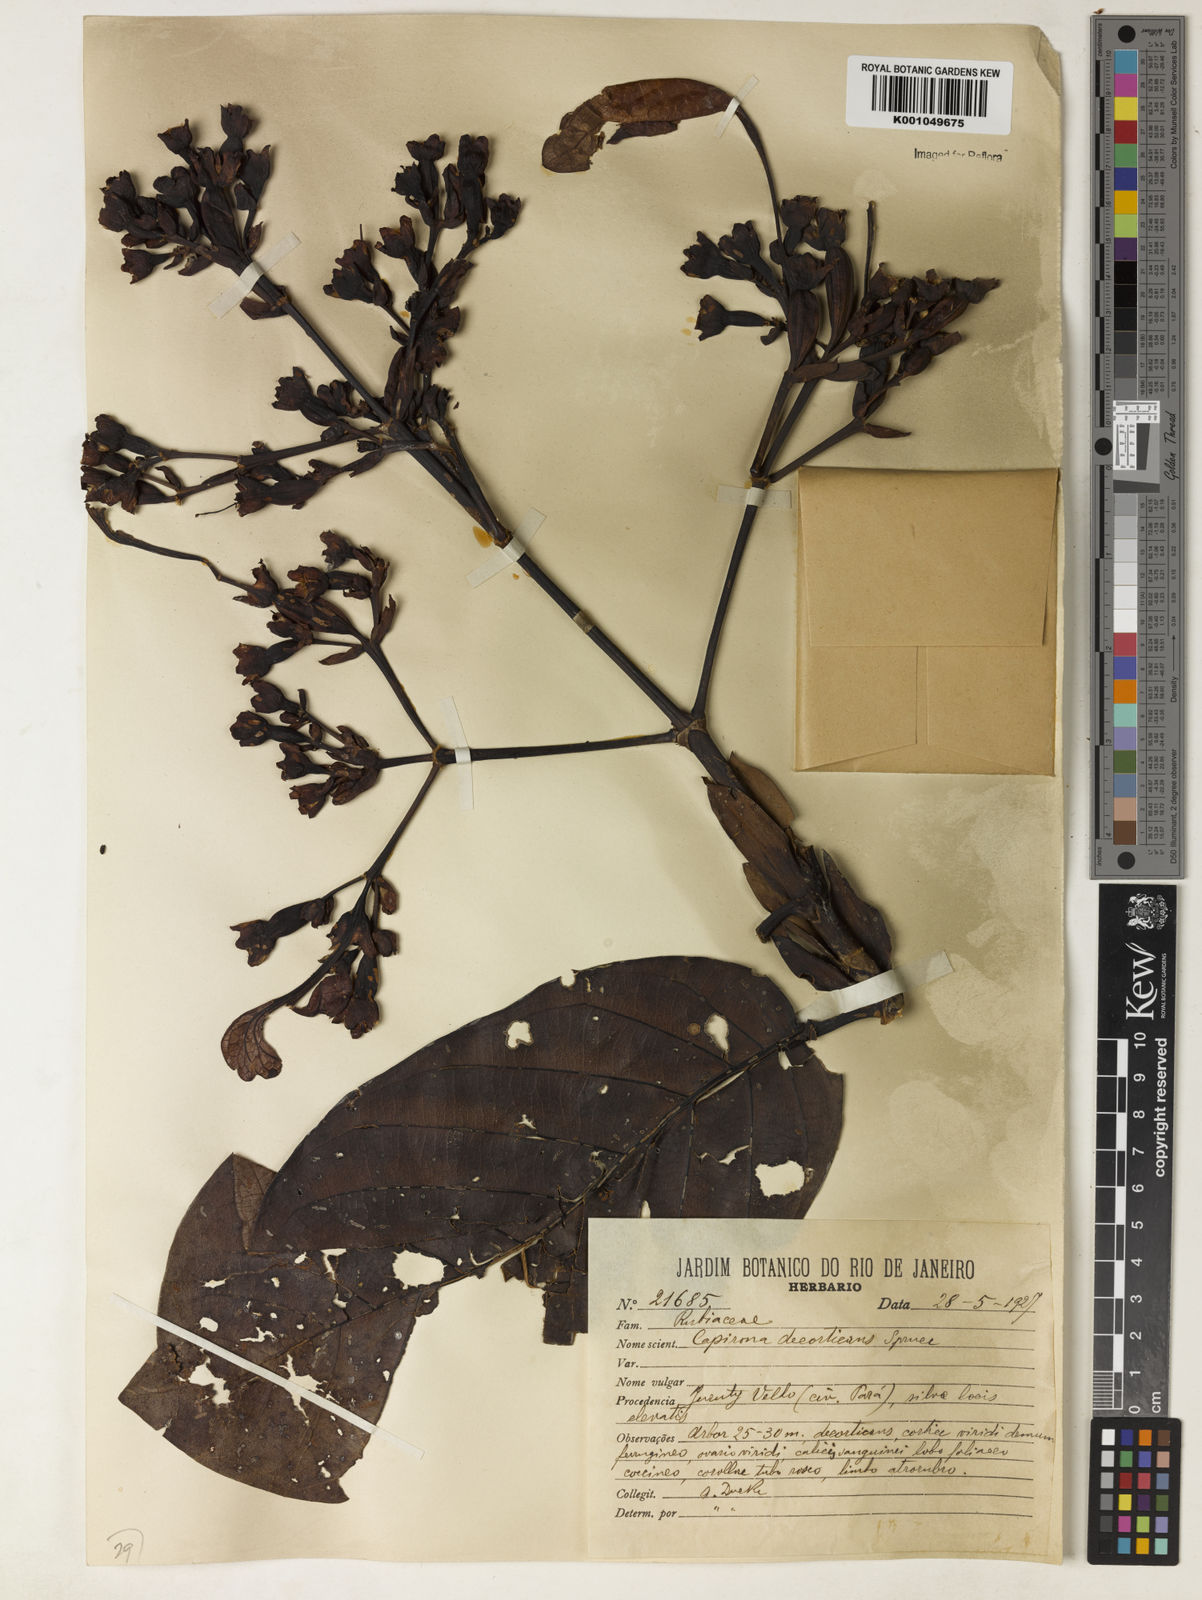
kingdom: Plantae
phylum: Tracheophyta
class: Magnoliopsida
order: Gentianales
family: Rubiaceae
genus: Capirona
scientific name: Capirona macrophylla
